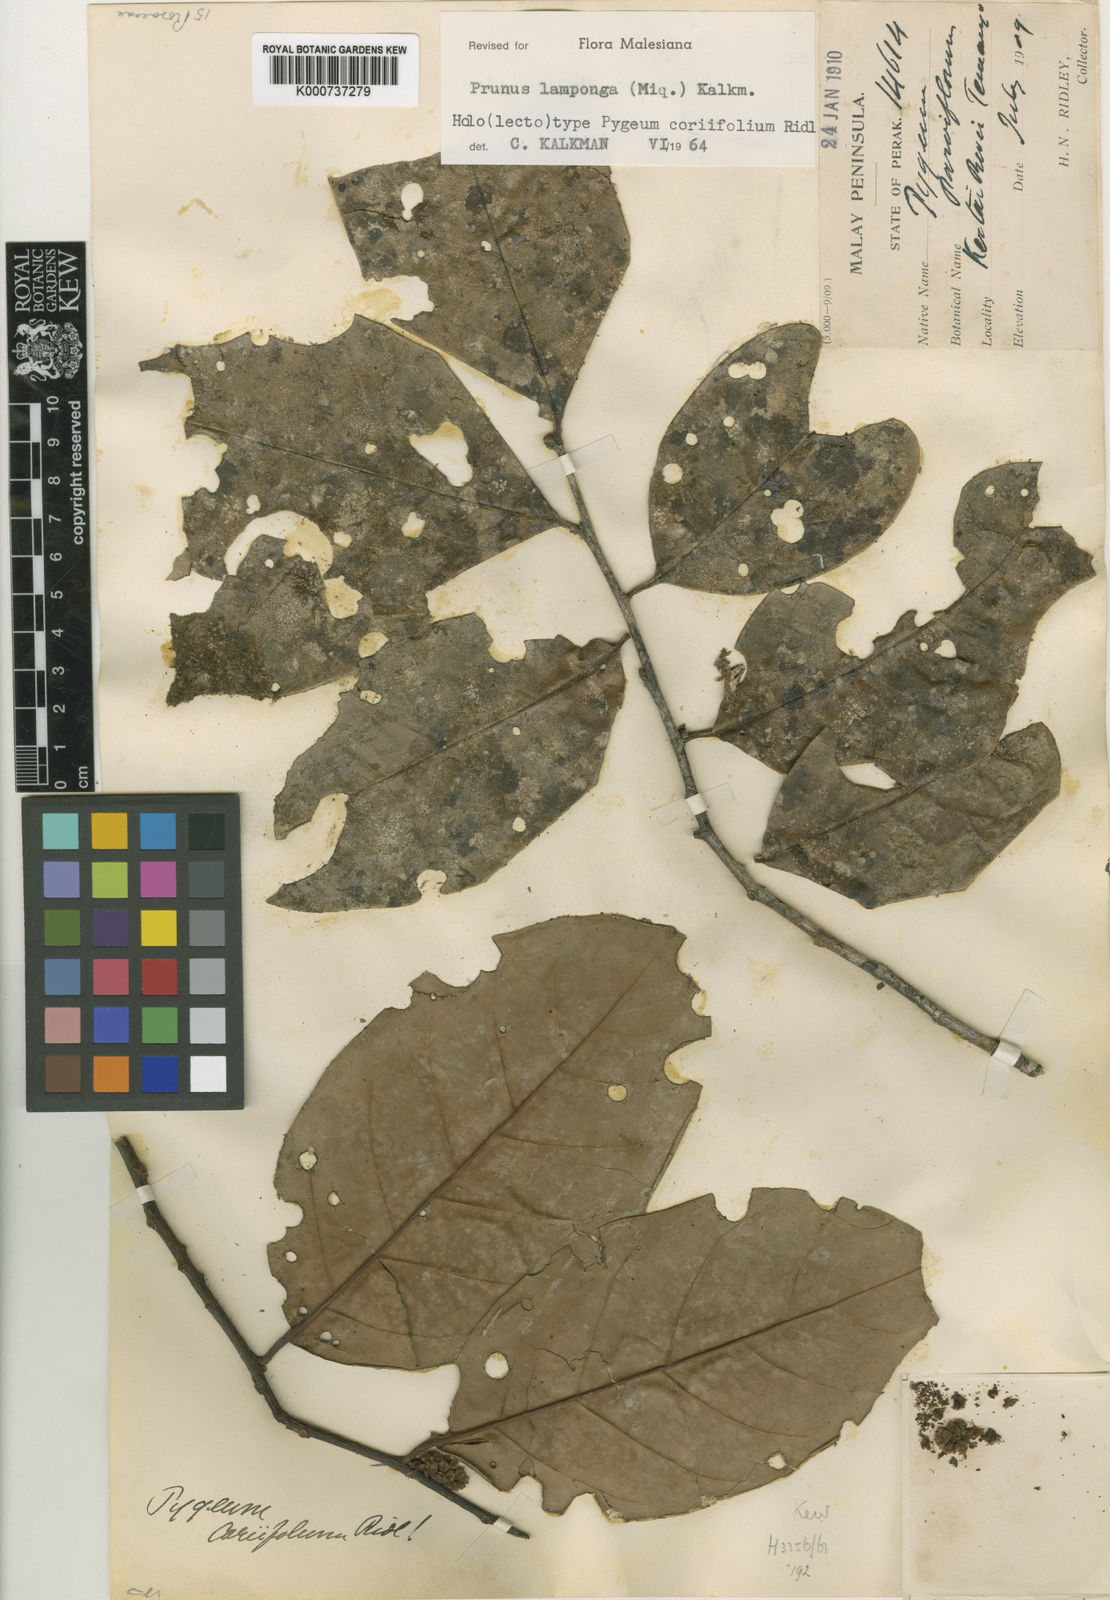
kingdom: Plantae
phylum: Tracheophyta
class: Magnoliopsida
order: Rosales
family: Rosaceae
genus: Prunus
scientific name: Prunus lamponga
